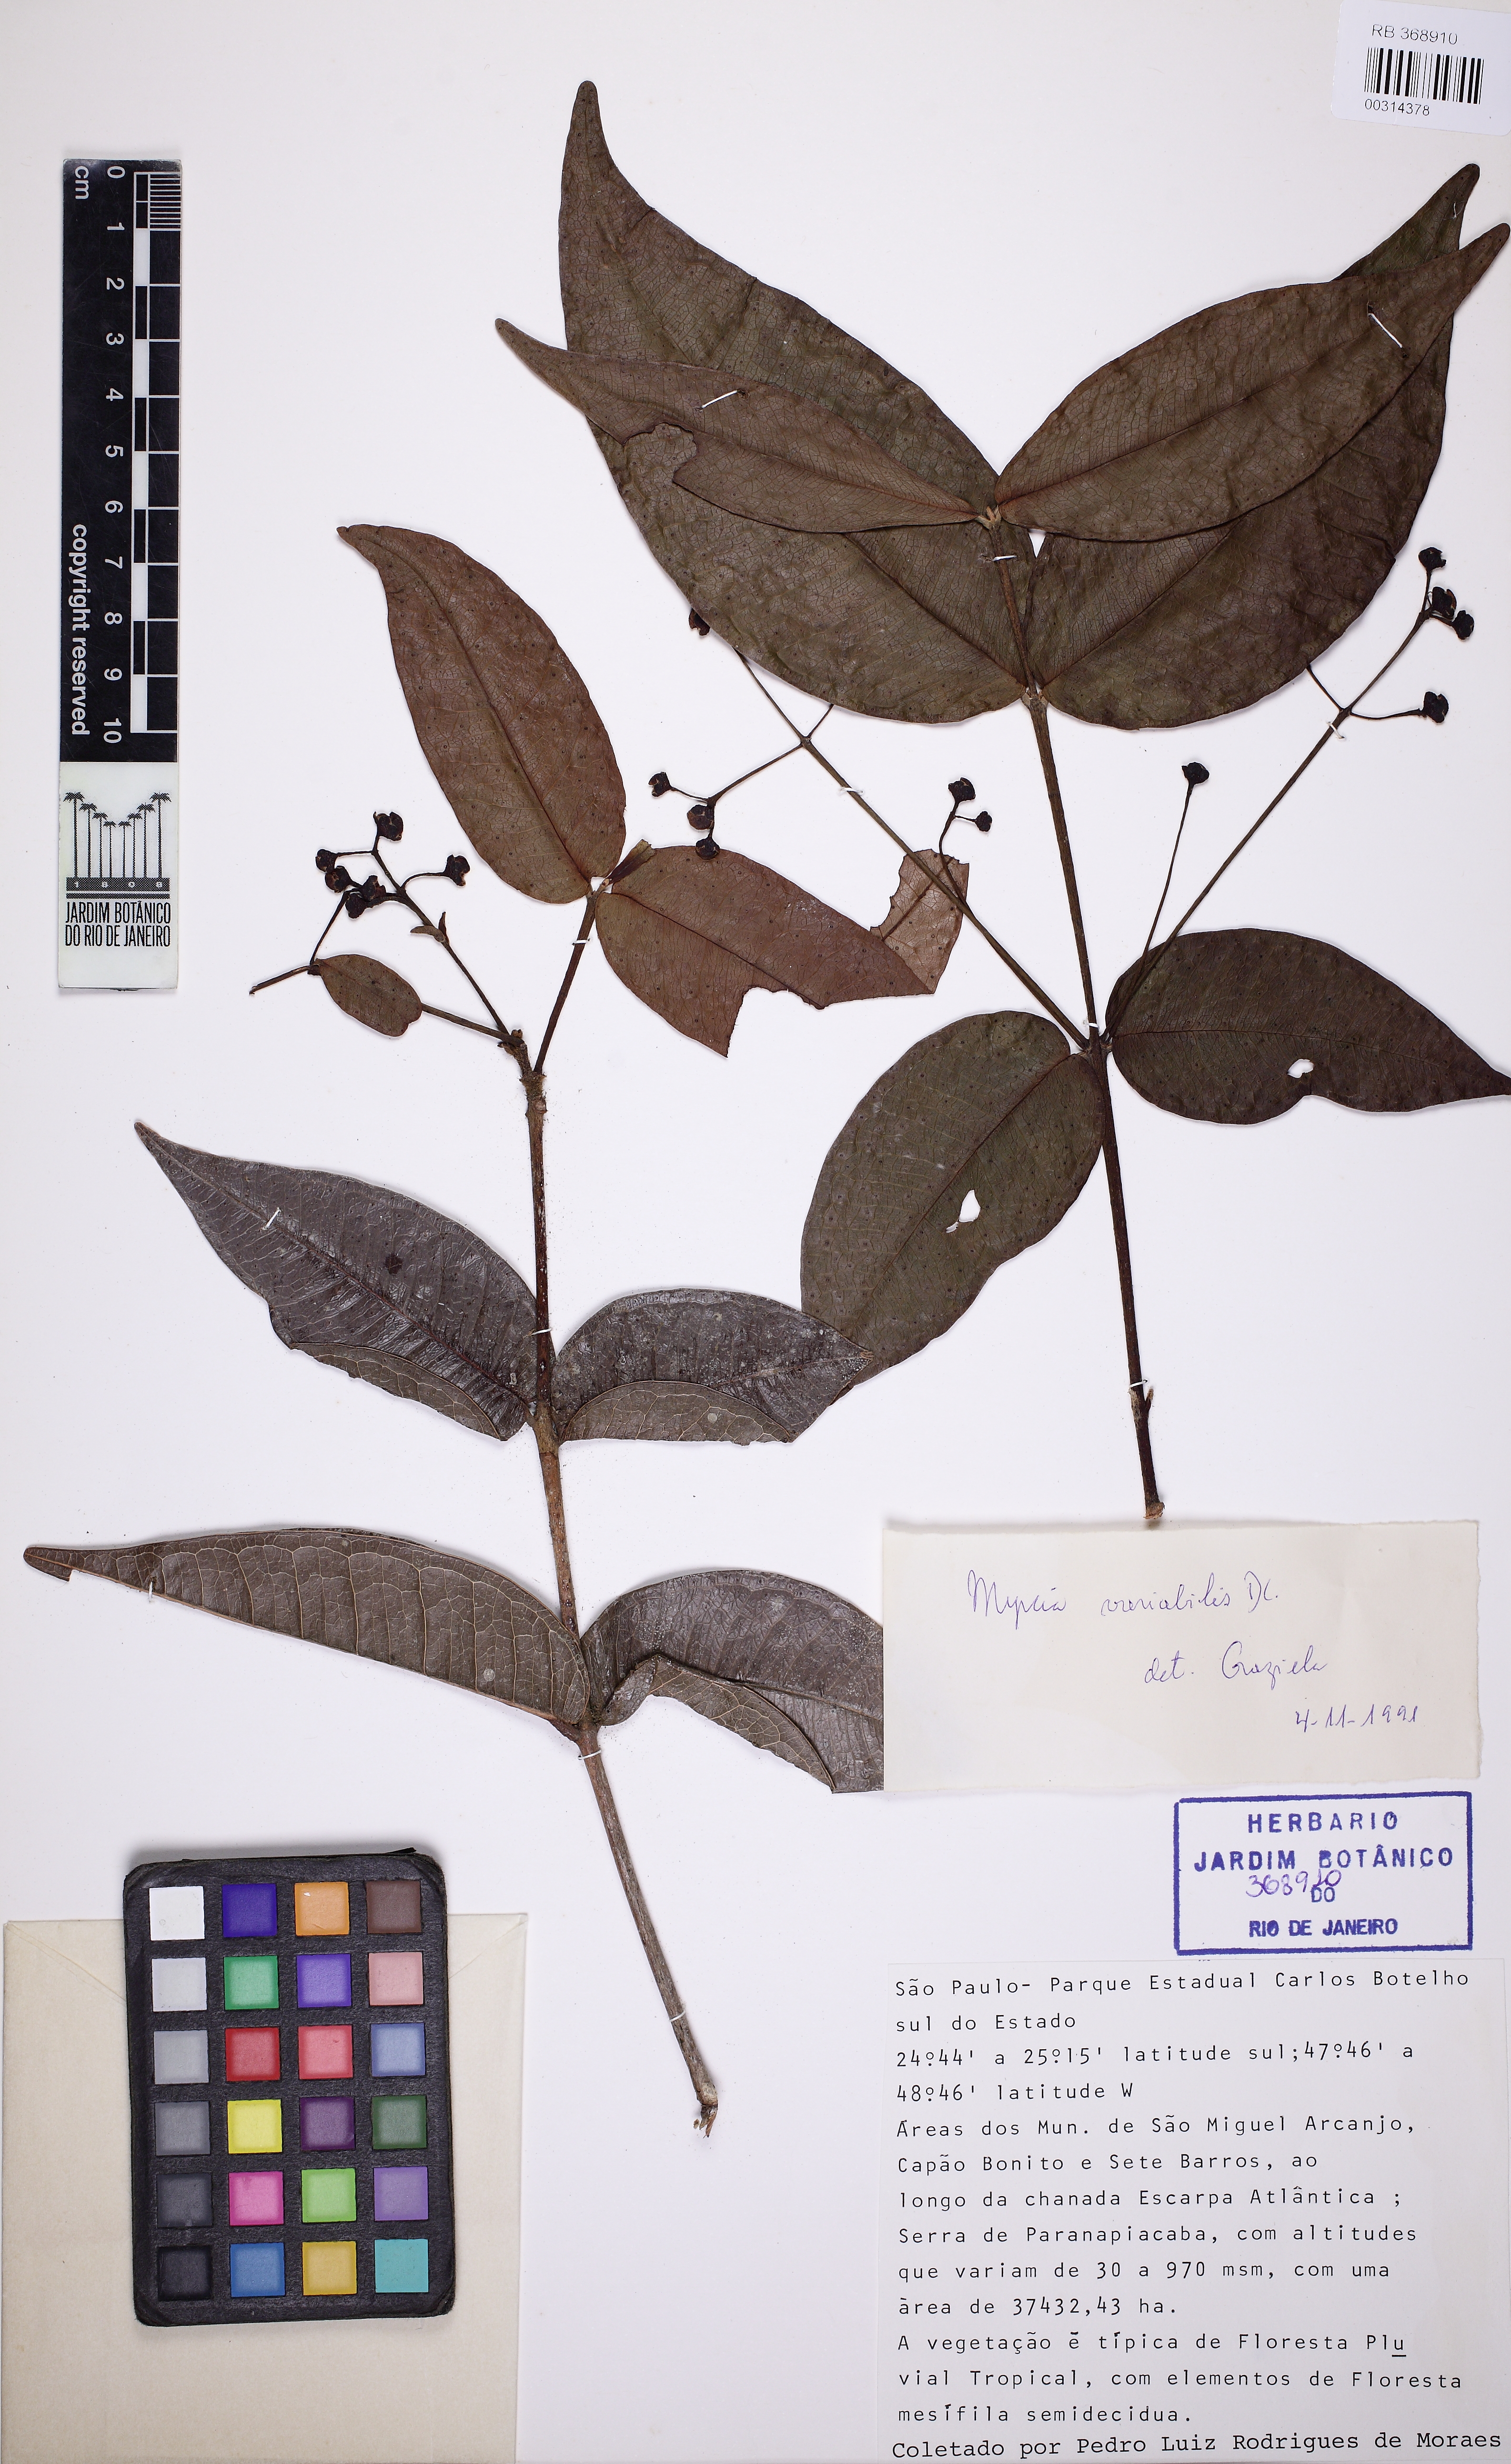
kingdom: Plantae
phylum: Tracheophyta
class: Magnoliopsida
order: Myrtales
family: Myrtaceae
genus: Myrcia
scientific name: Myrcia heringii
